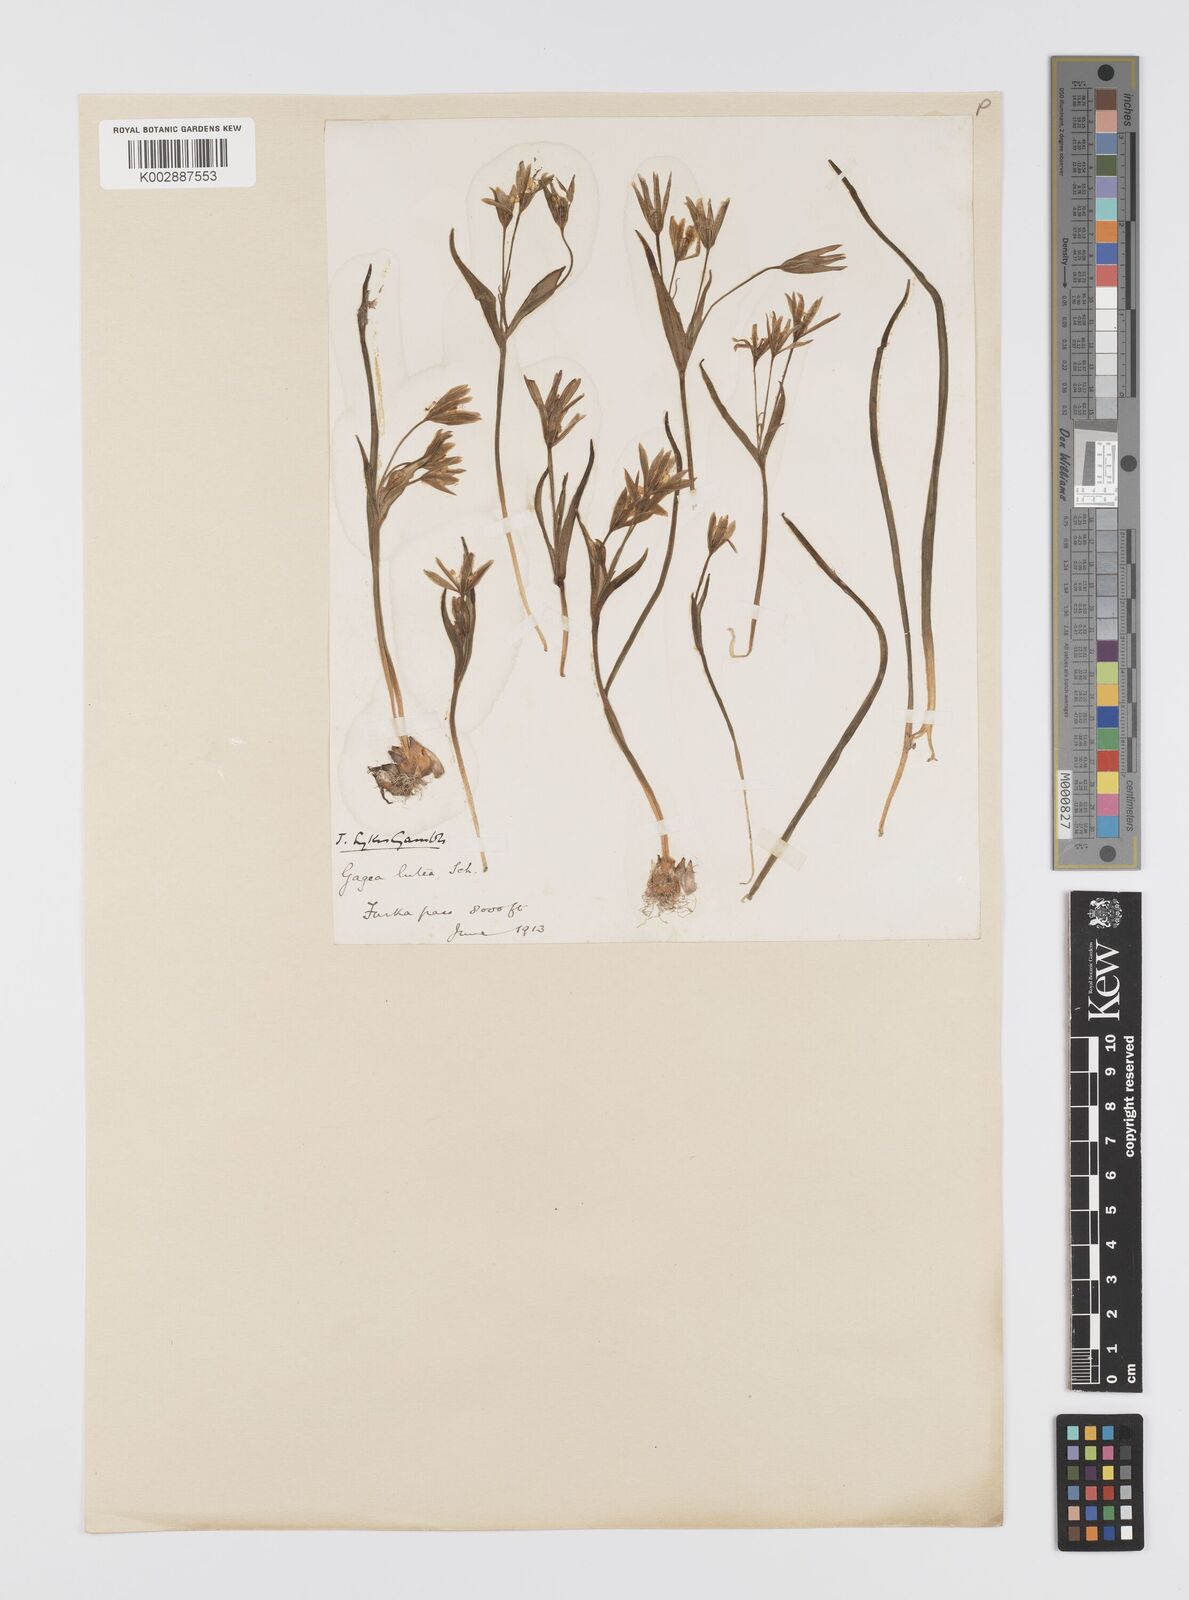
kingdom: Plantae
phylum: Tracheophyta
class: Liliopsida
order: Liliales
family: Liliaceae
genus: Gagea
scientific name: Gagea lutea
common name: Yellow star-of-bethlehem
